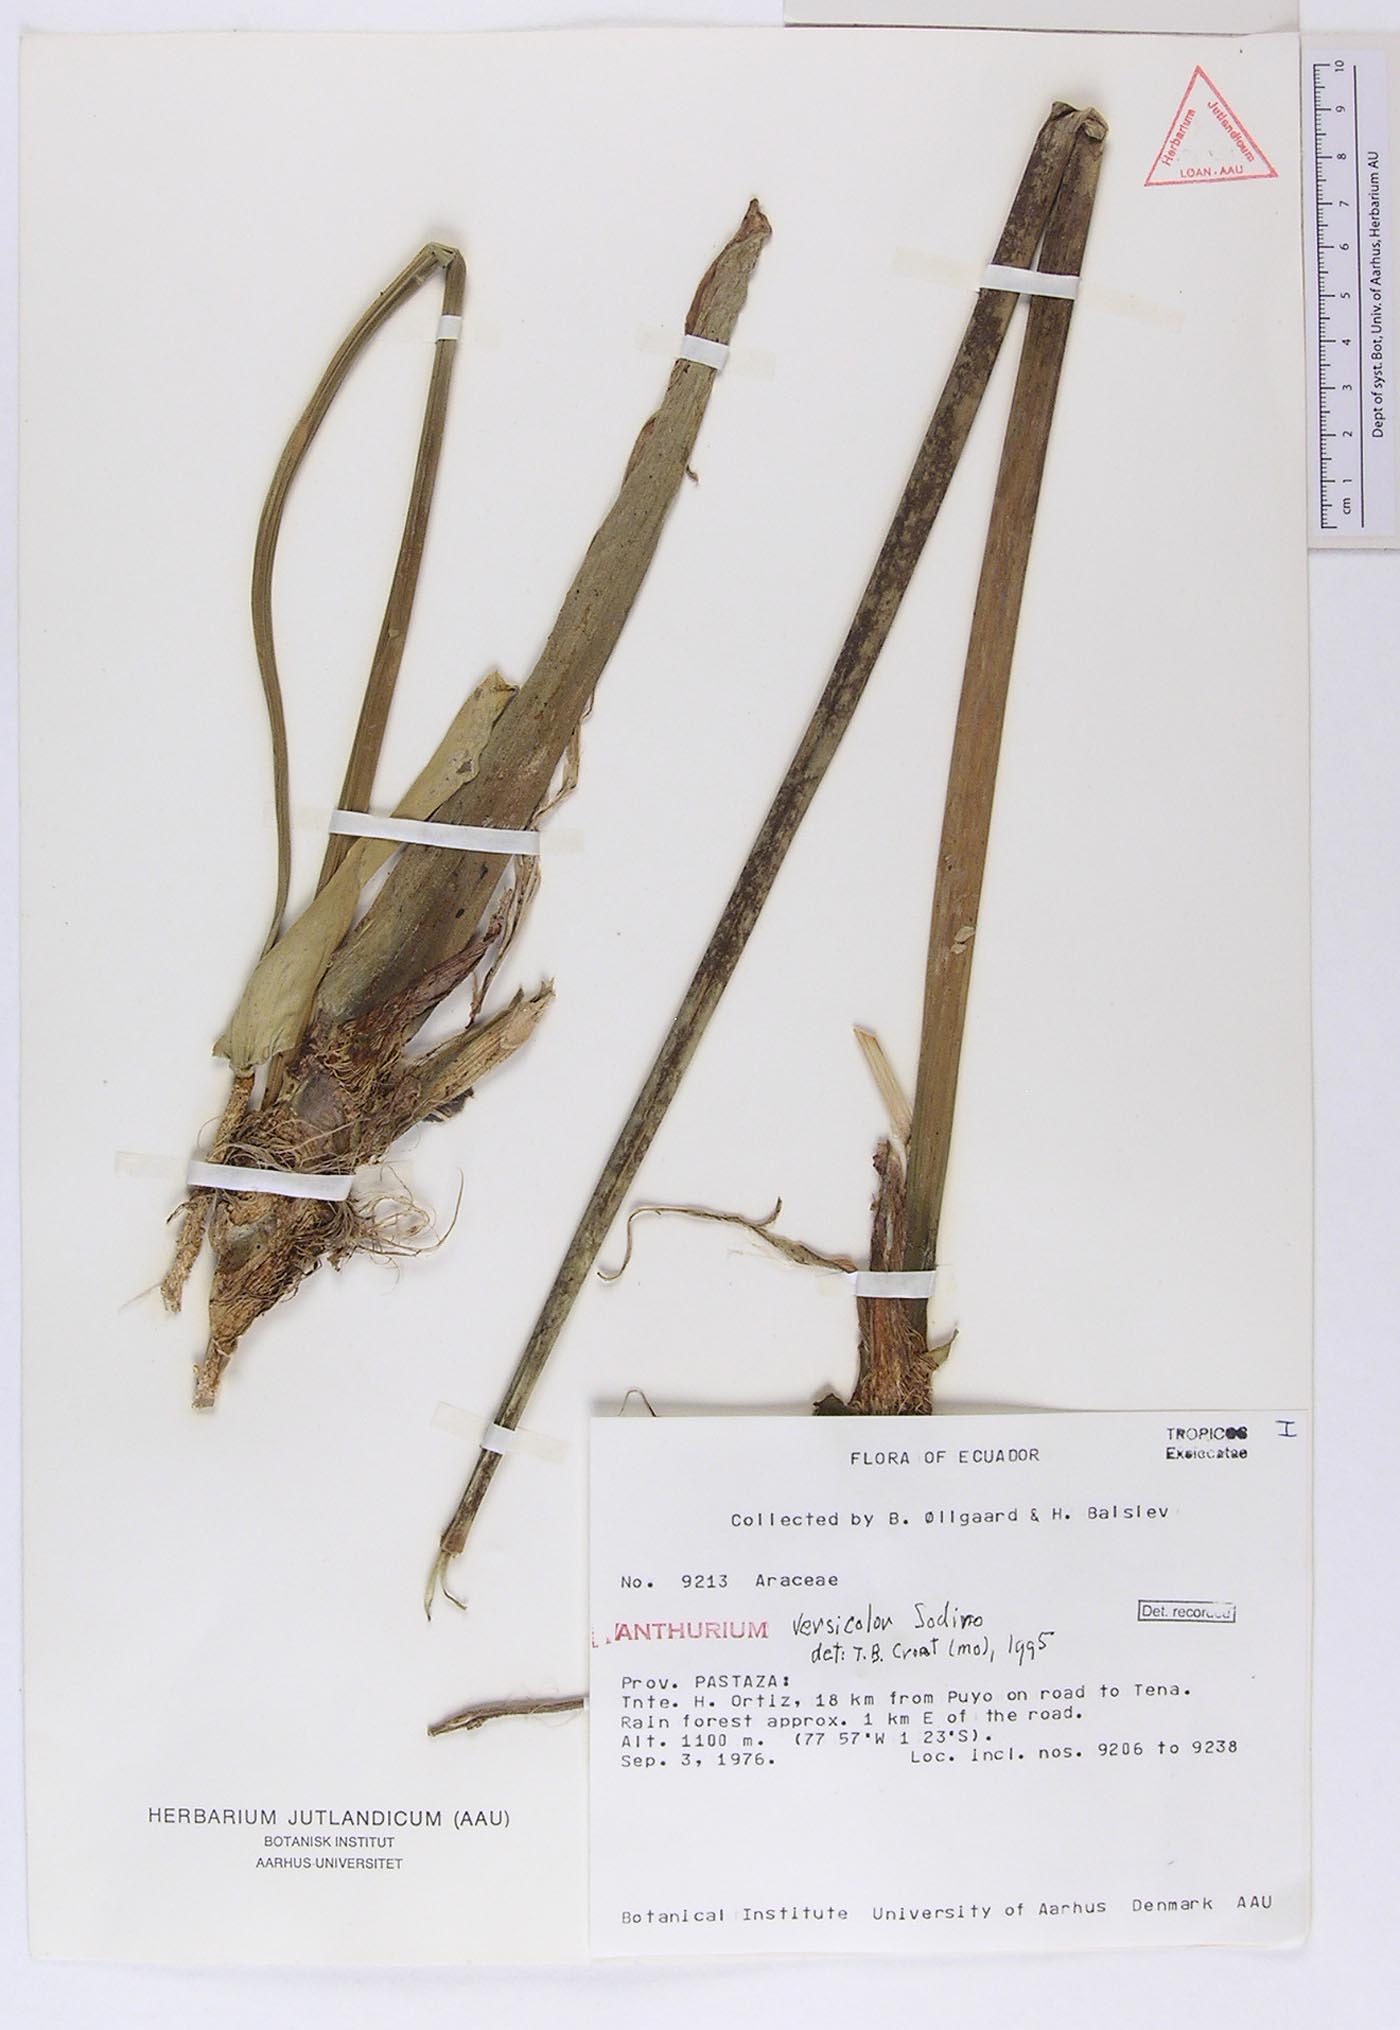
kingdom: Plantae
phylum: Tracheophyta
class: Liliopsida
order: Alismatales
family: Araceae
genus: Anthurium
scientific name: Anthurium versicolor
